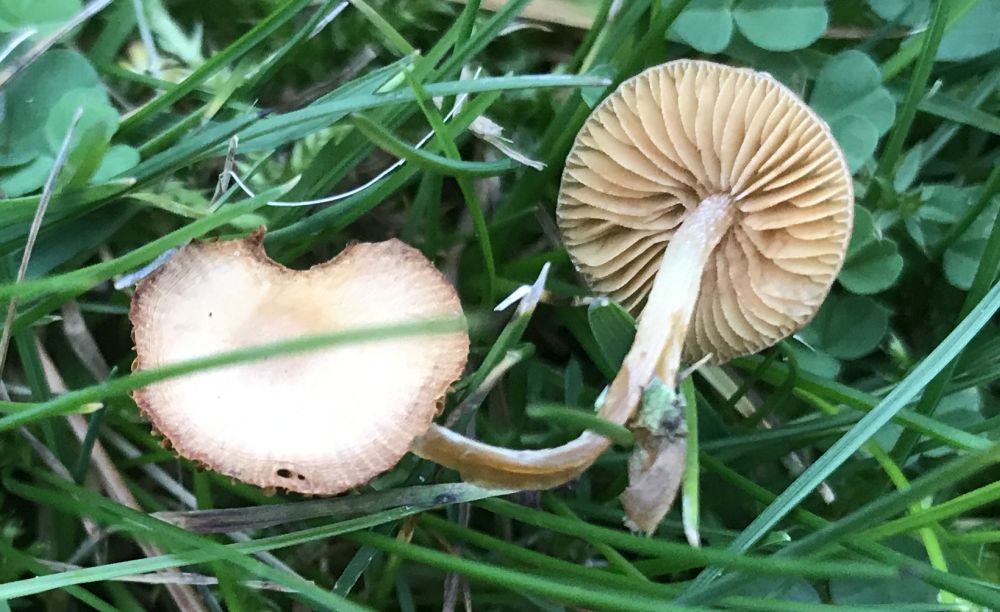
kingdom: Fungi
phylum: Basidiomycota
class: Agaricomycetes
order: Agaricales
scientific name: Agaricales
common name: champignonordenen
